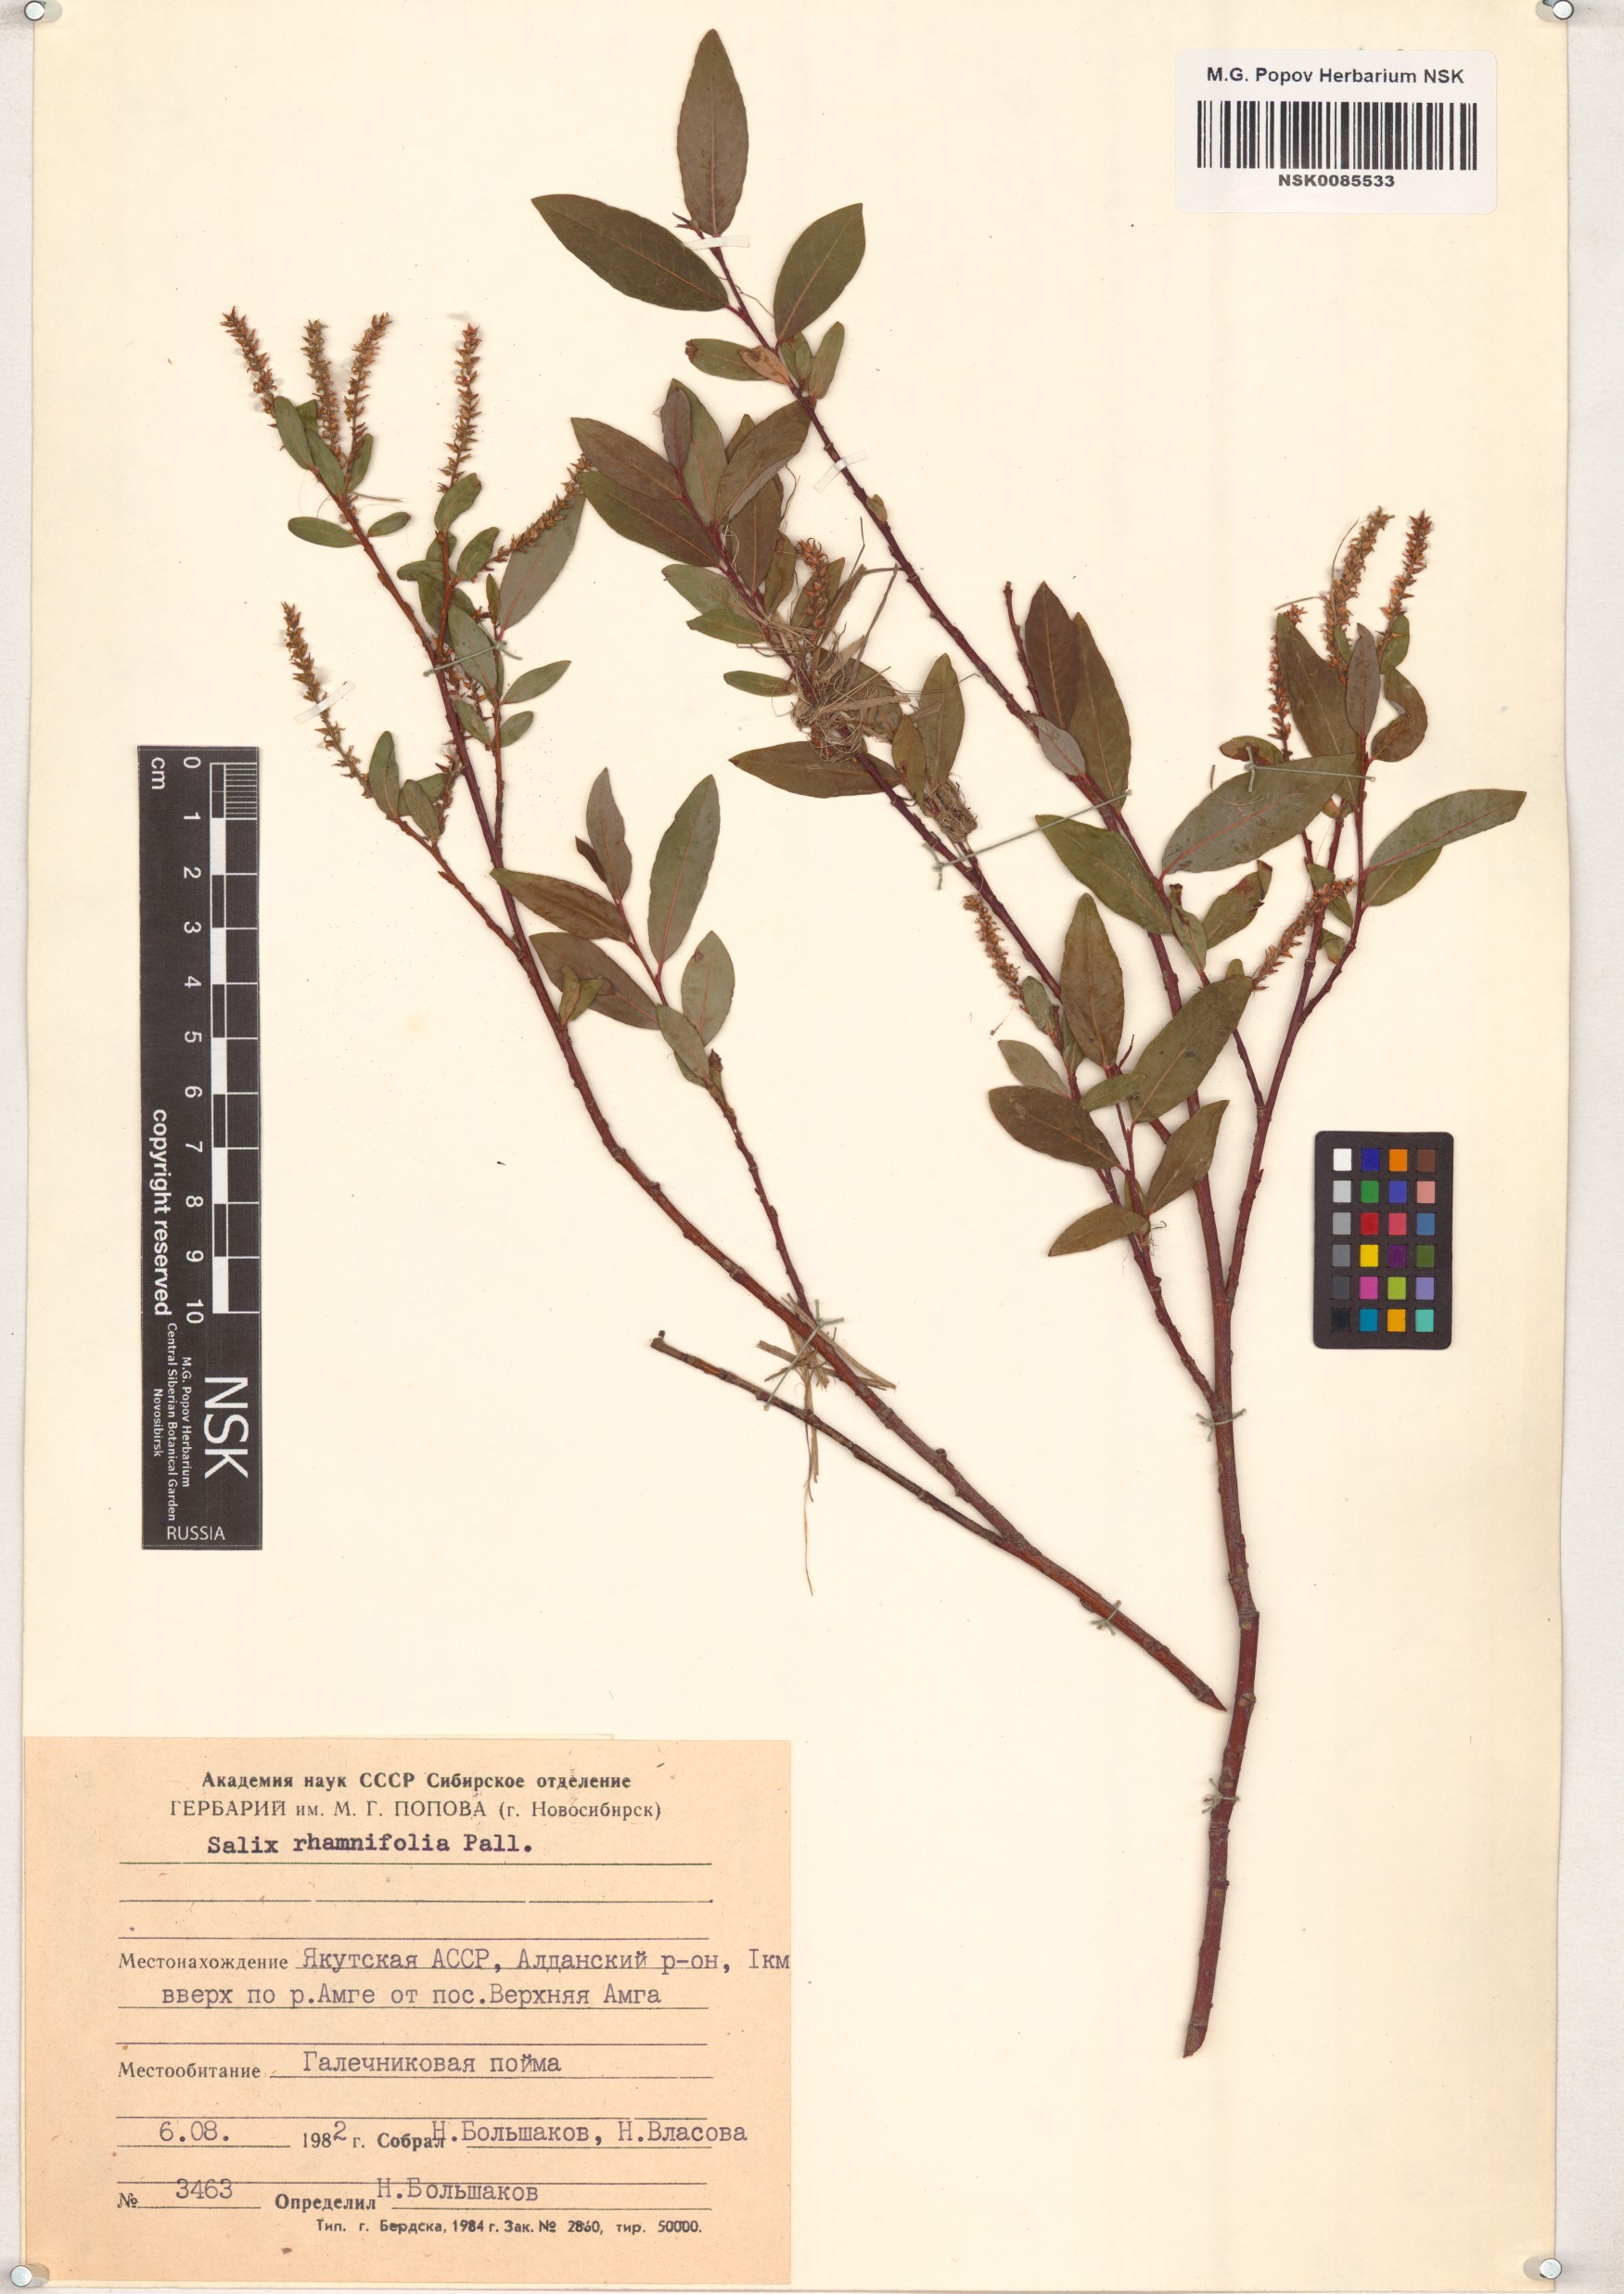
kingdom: Plantae
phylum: Tracheophyta
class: Magnoliopsida
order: Malpighiales
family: Salicaceae
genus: Salix
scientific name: Salix rhamnifolia
